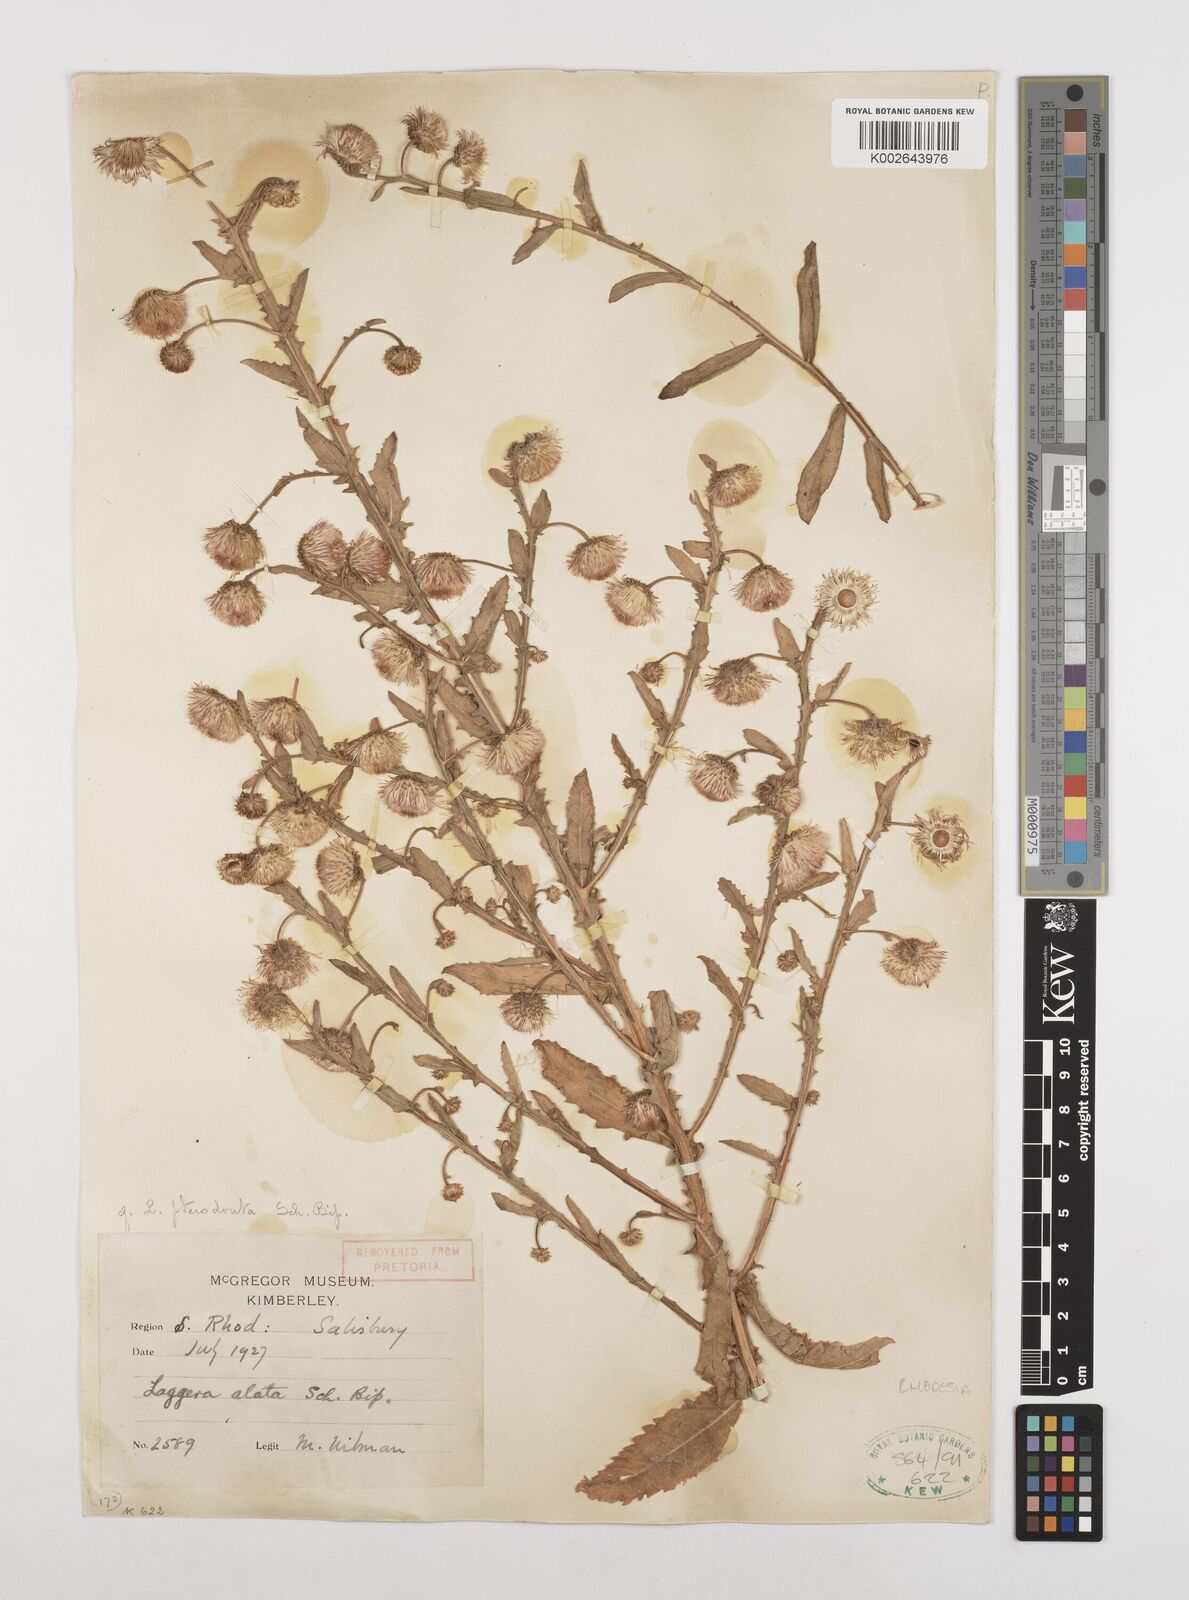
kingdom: Plantae
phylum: Tracheophyta
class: Magnoliopsida
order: Asterales
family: Asteraceae
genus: Laggera
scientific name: Laggera crispata
